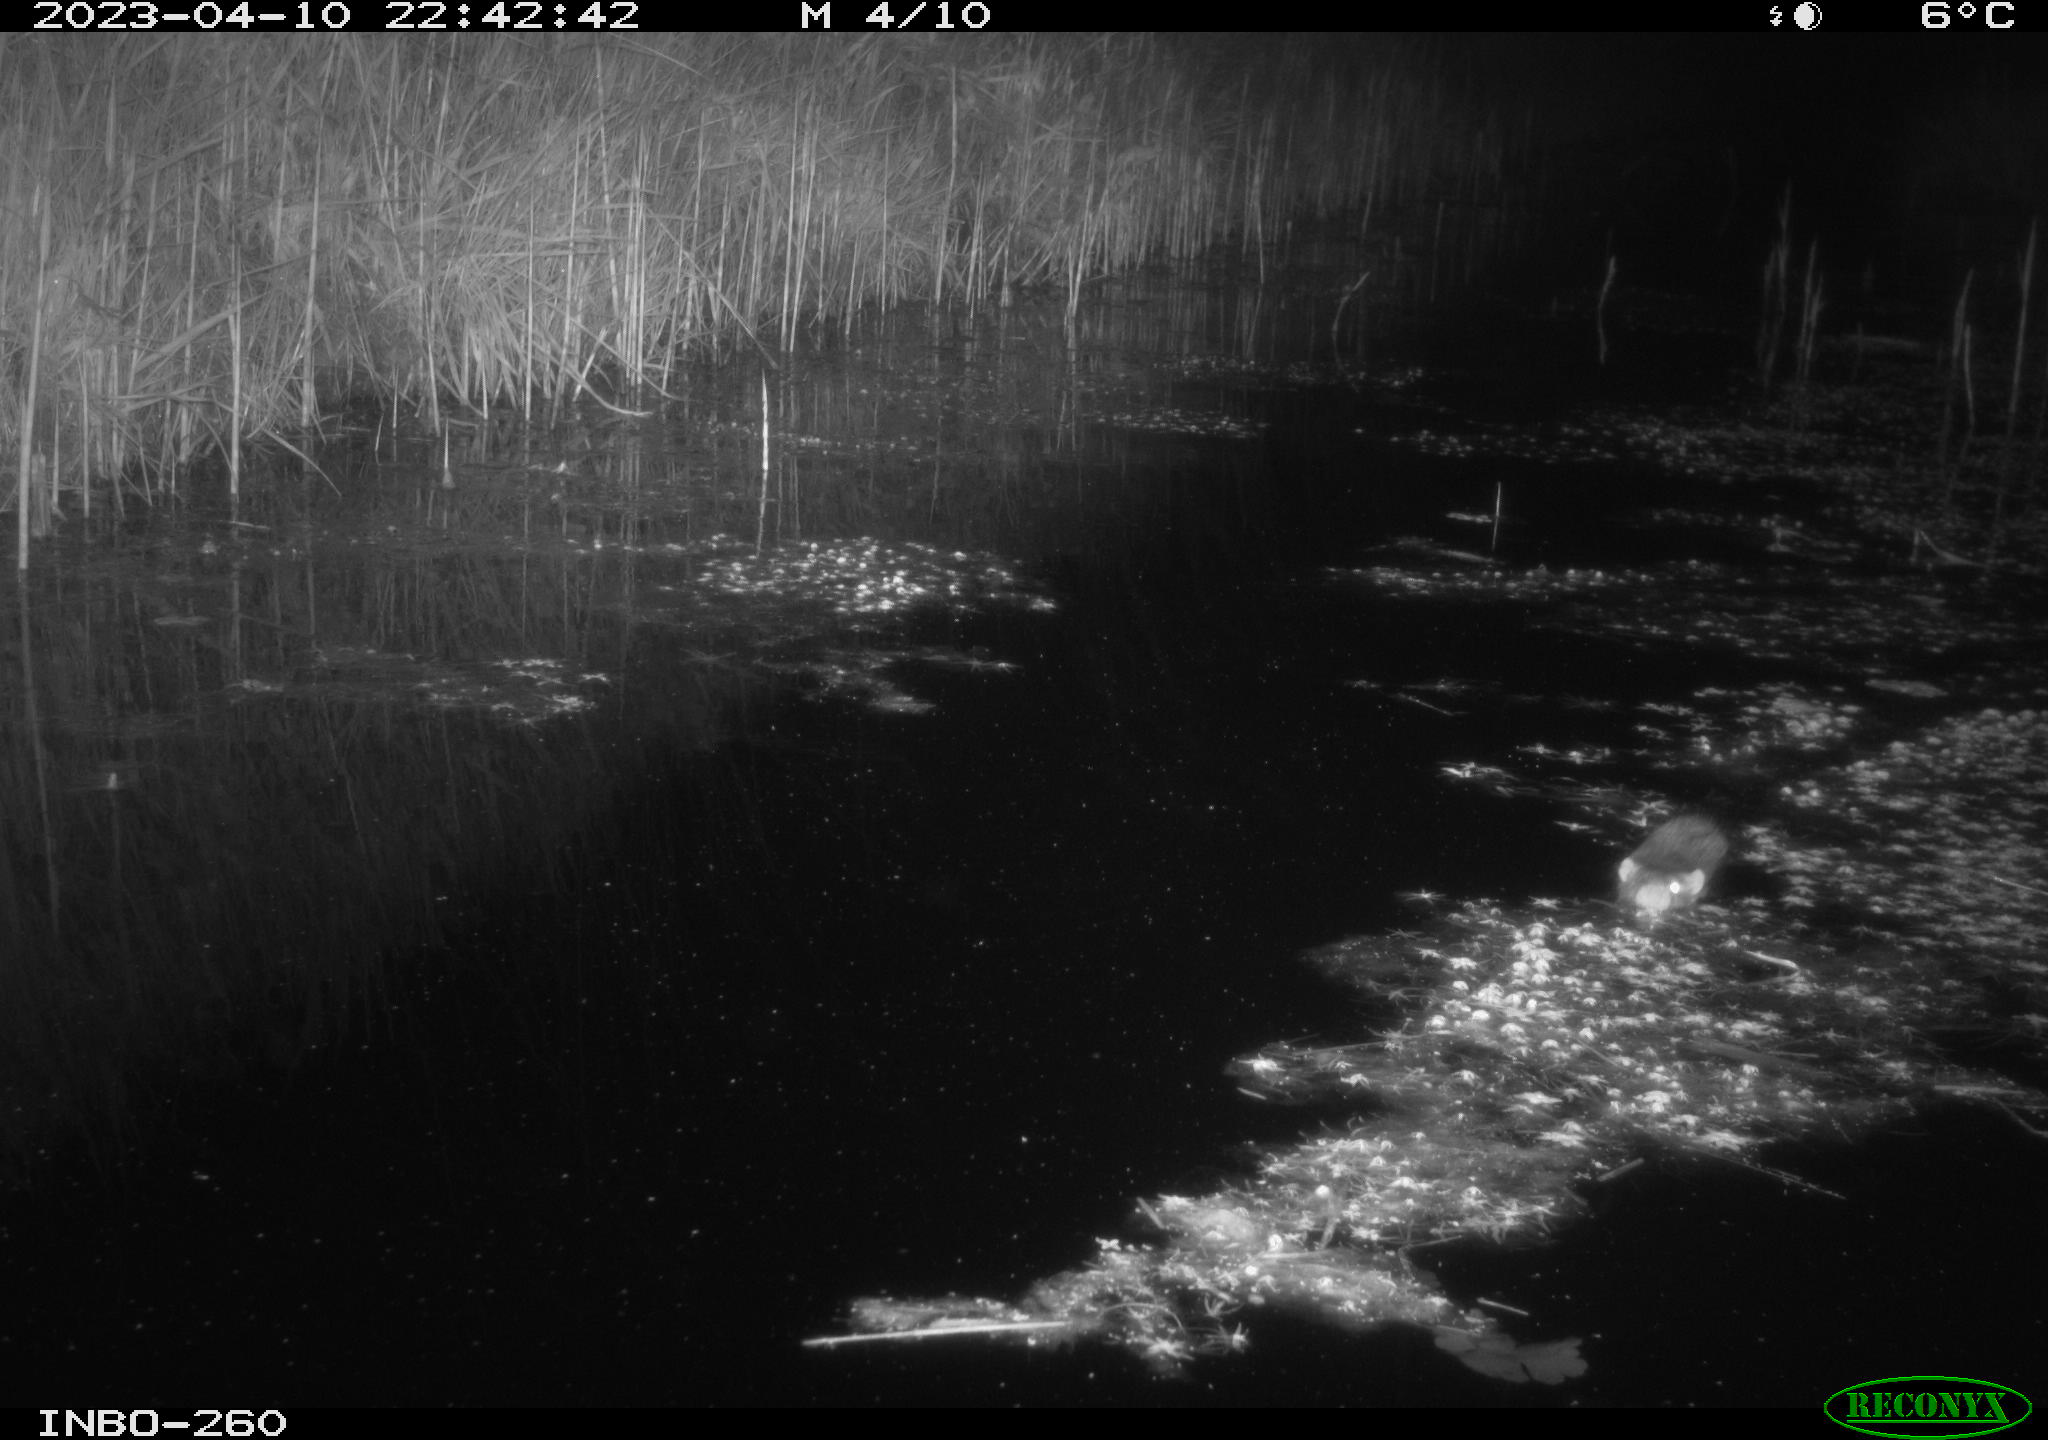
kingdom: Animalia
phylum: Chordata
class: Mammalia
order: Rodentia
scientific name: Rodentia
